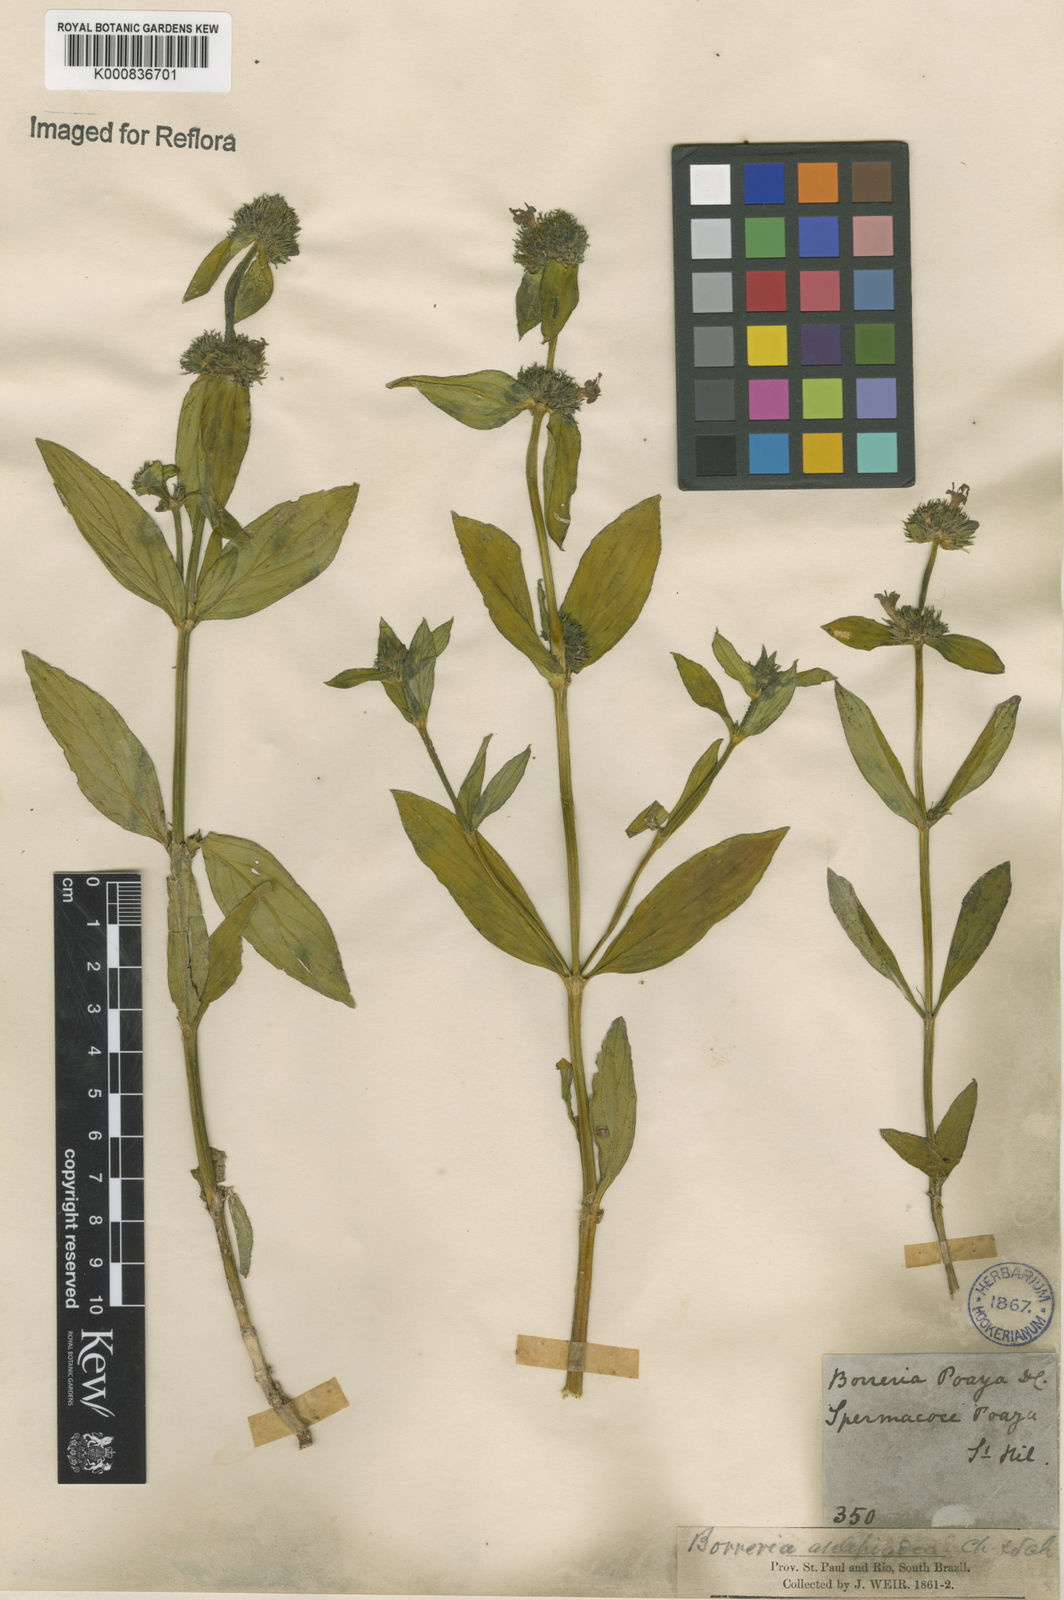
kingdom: Plantae
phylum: Tracheophyta
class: Magnoliopsida
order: Gentianales
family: Rubiaceae
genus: Spermacoce
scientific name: Spermacoce poaya
